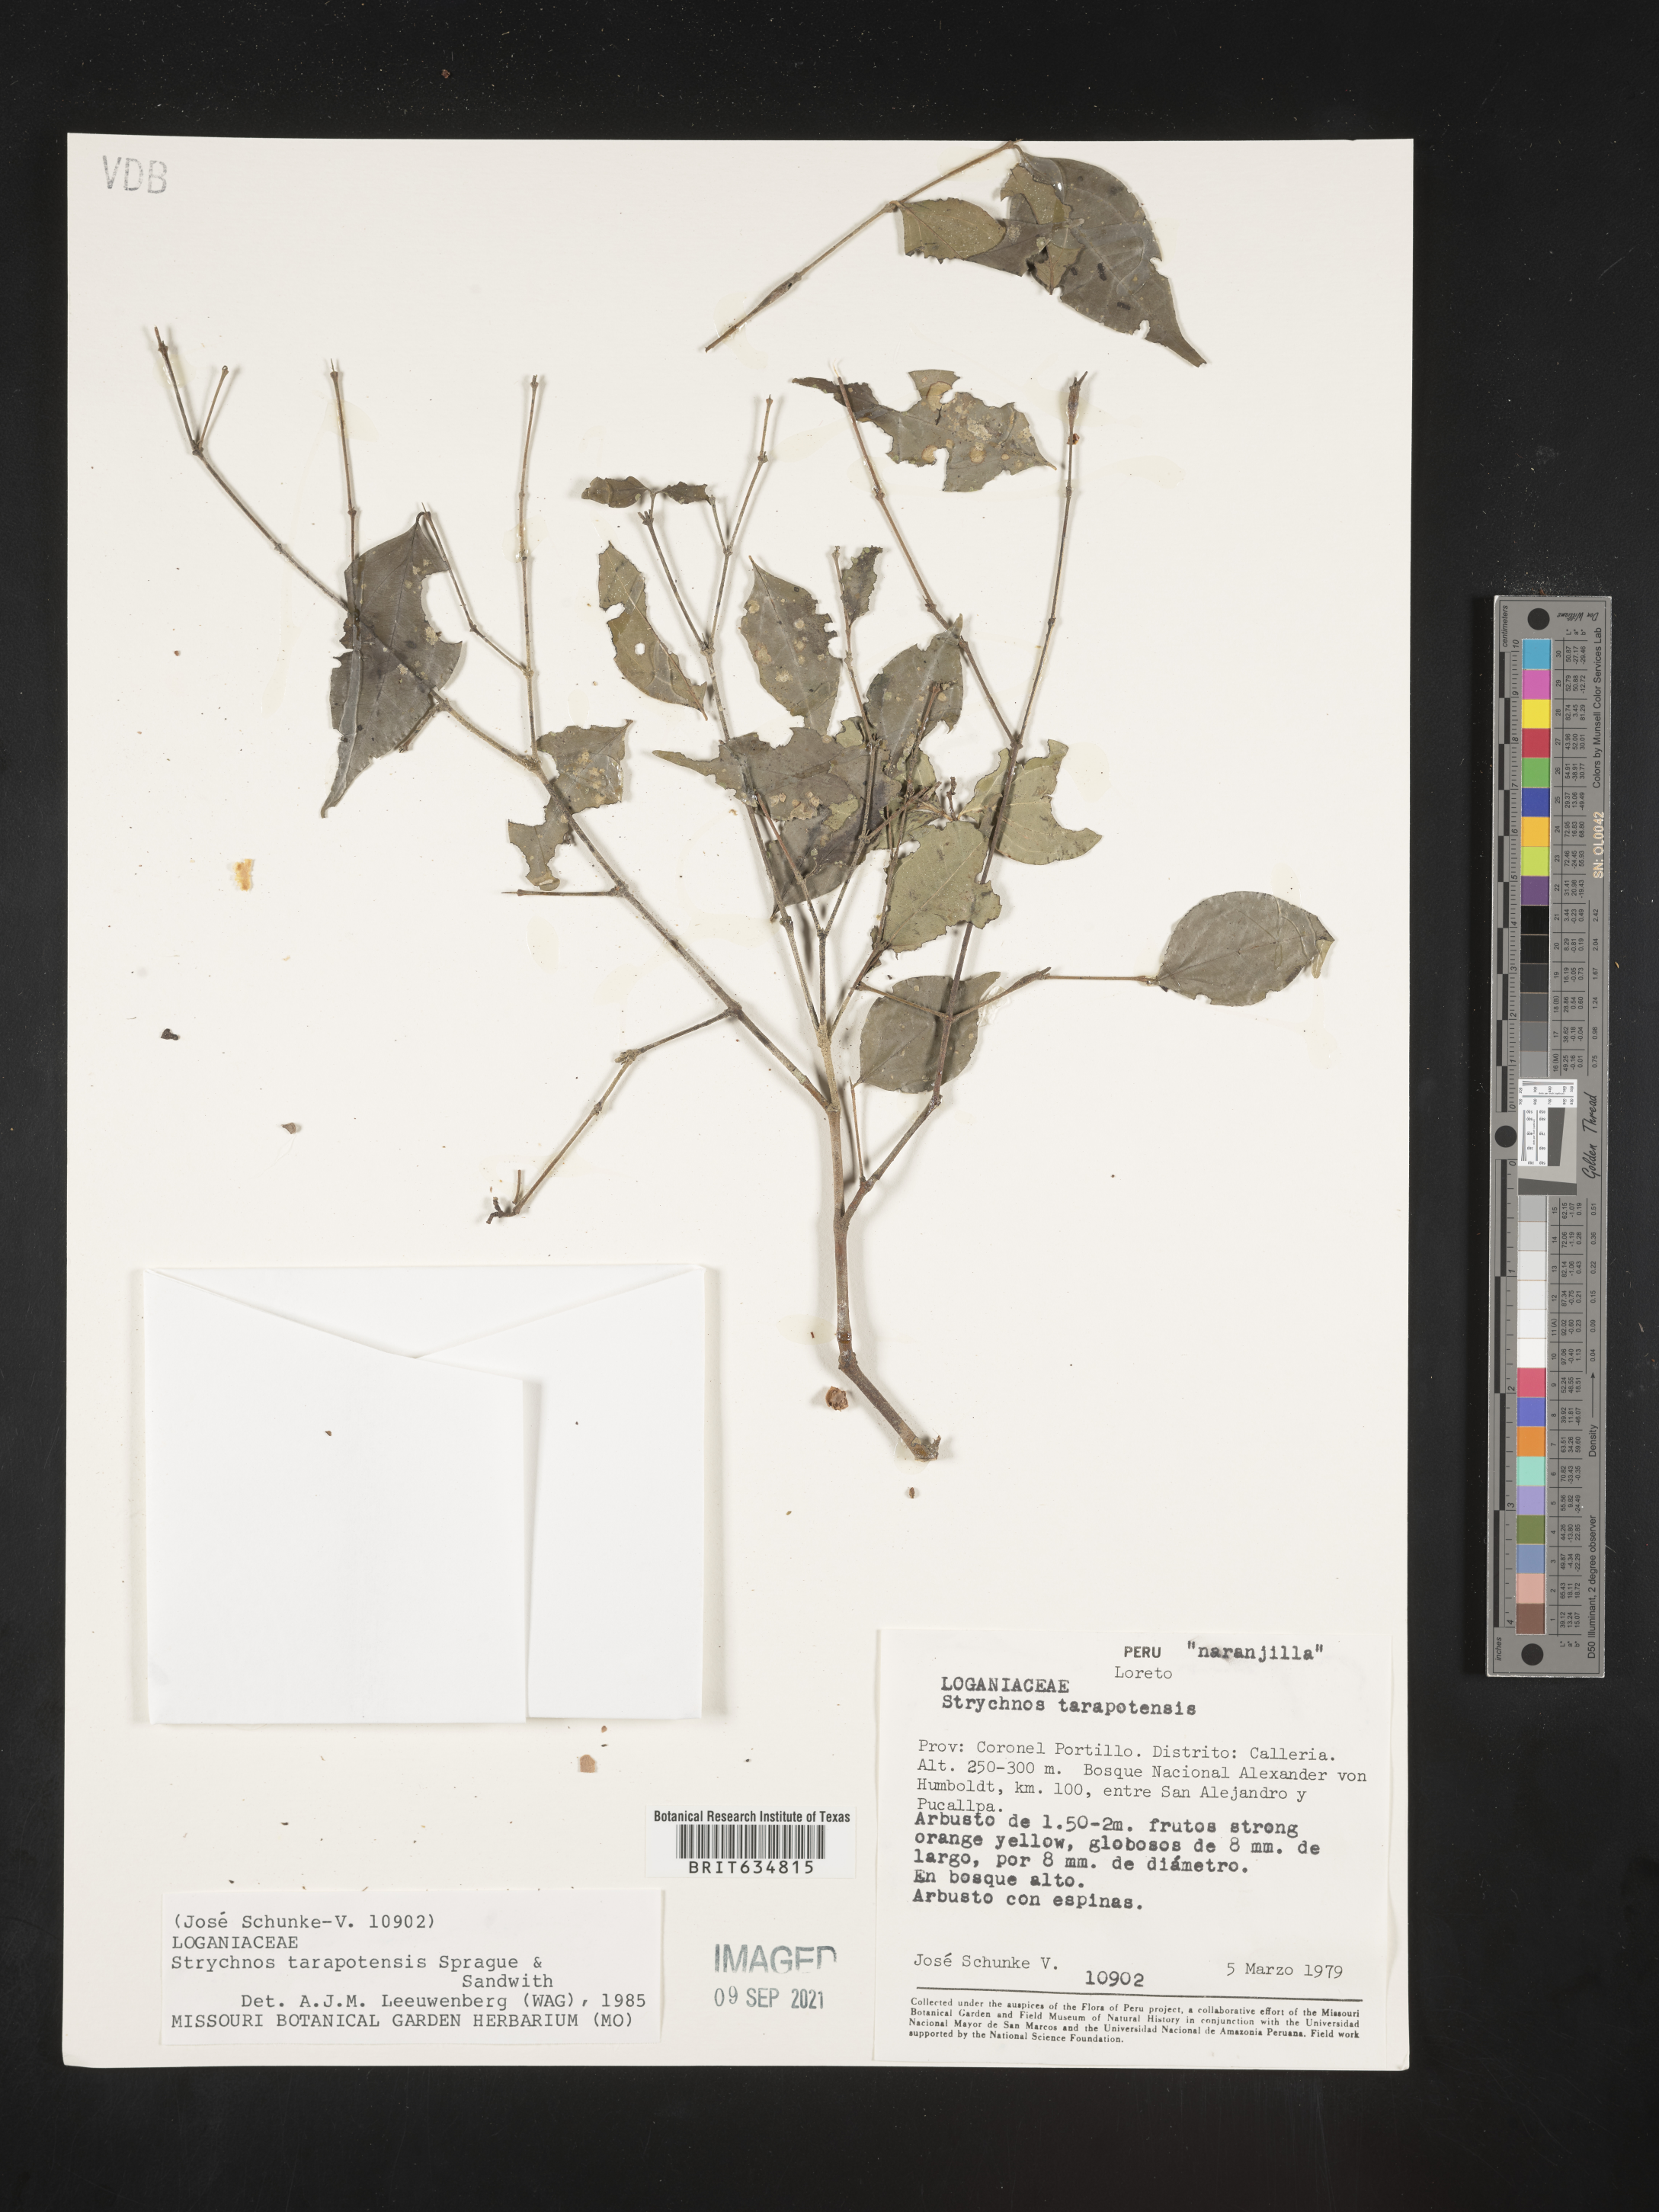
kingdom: Plantae
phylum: Tracheophyta
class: Magnoliopsida
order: Gentianales
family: Loganiaceae
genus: Strychnos
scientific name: Strychnos
